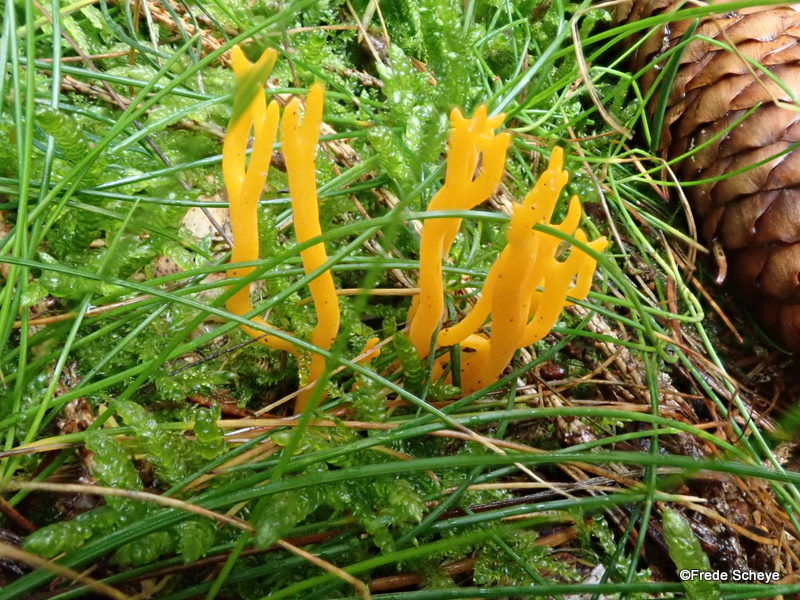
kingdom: Fungi
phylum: Basidiomycota
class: Dacrymycetes
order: Dacrymycetales
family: Dacrymycetaceae
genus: Calocera
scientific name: Calocera viscosa
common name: almindelig guldgaffel
